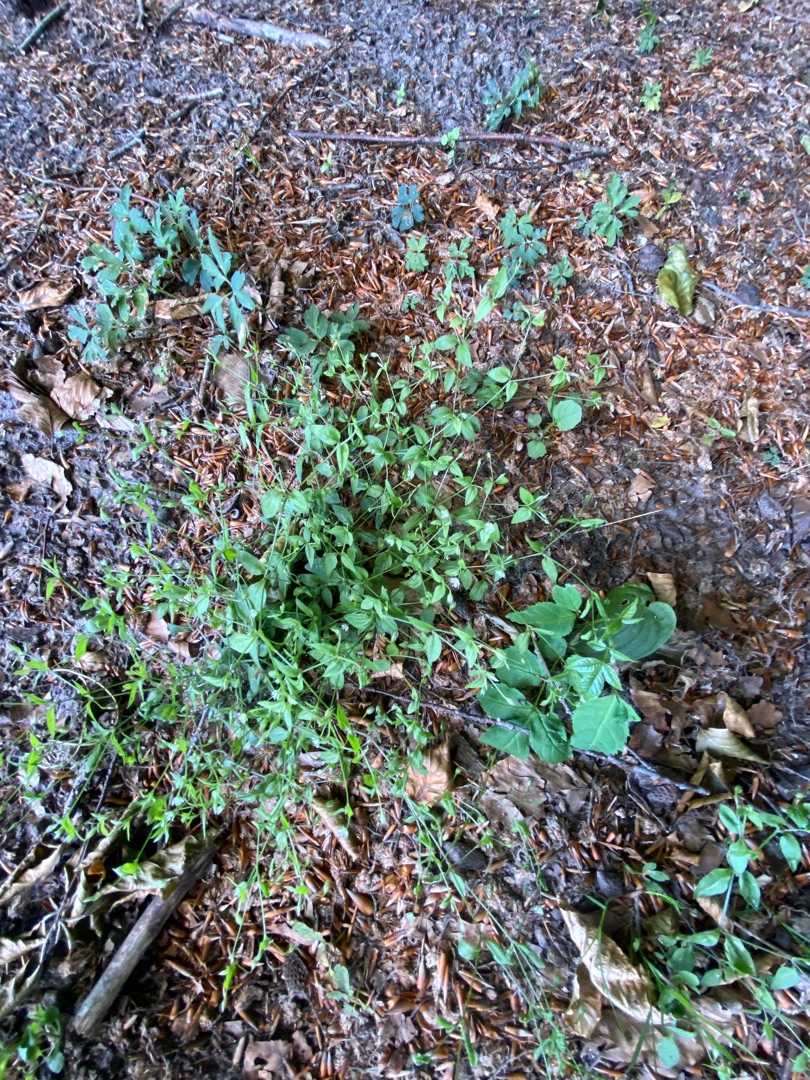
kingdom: Plantae
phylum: Tracheophyta
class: Magnoliopsida
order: Caryophyllales
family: Caryophyllaceae
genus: Moehringia
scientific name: Moehringia trinervia
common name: Skovarve
